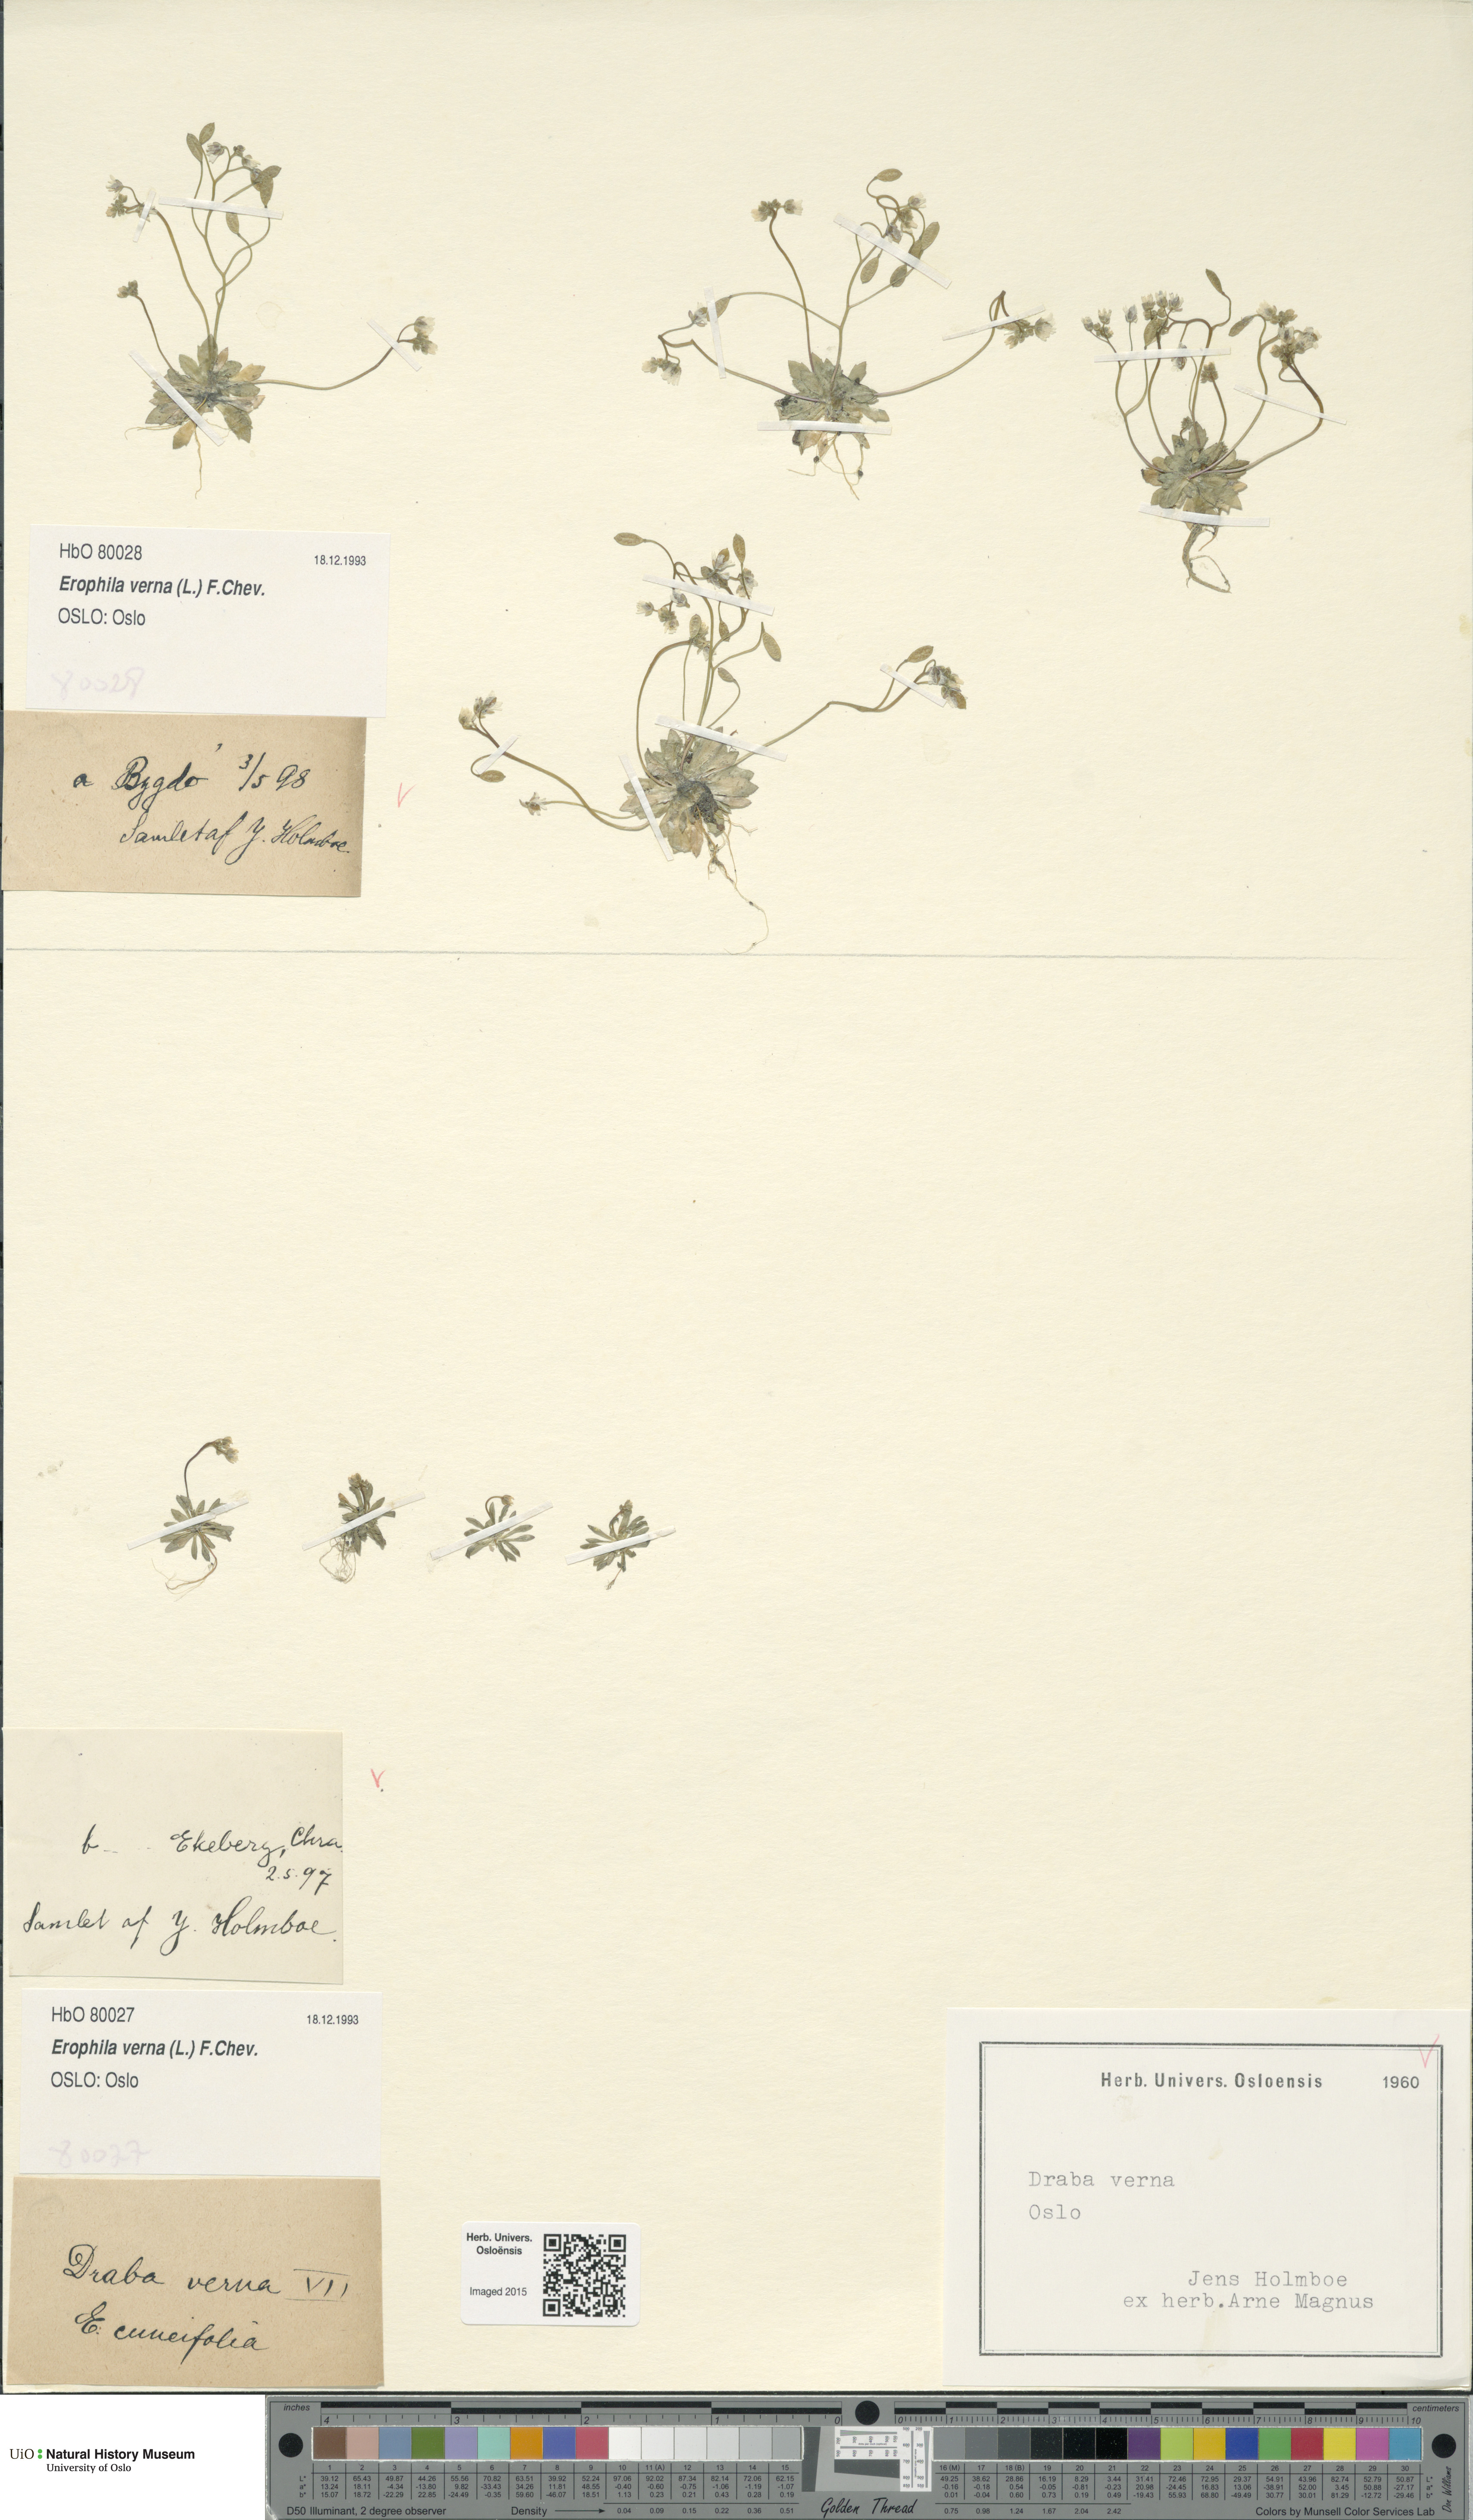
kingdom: Plantae
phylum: Tracheophyta
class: Magnoliopsida
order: Brassicales
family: Brassicaceae
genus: Draba
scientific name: Draba verna
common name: Spring draba
